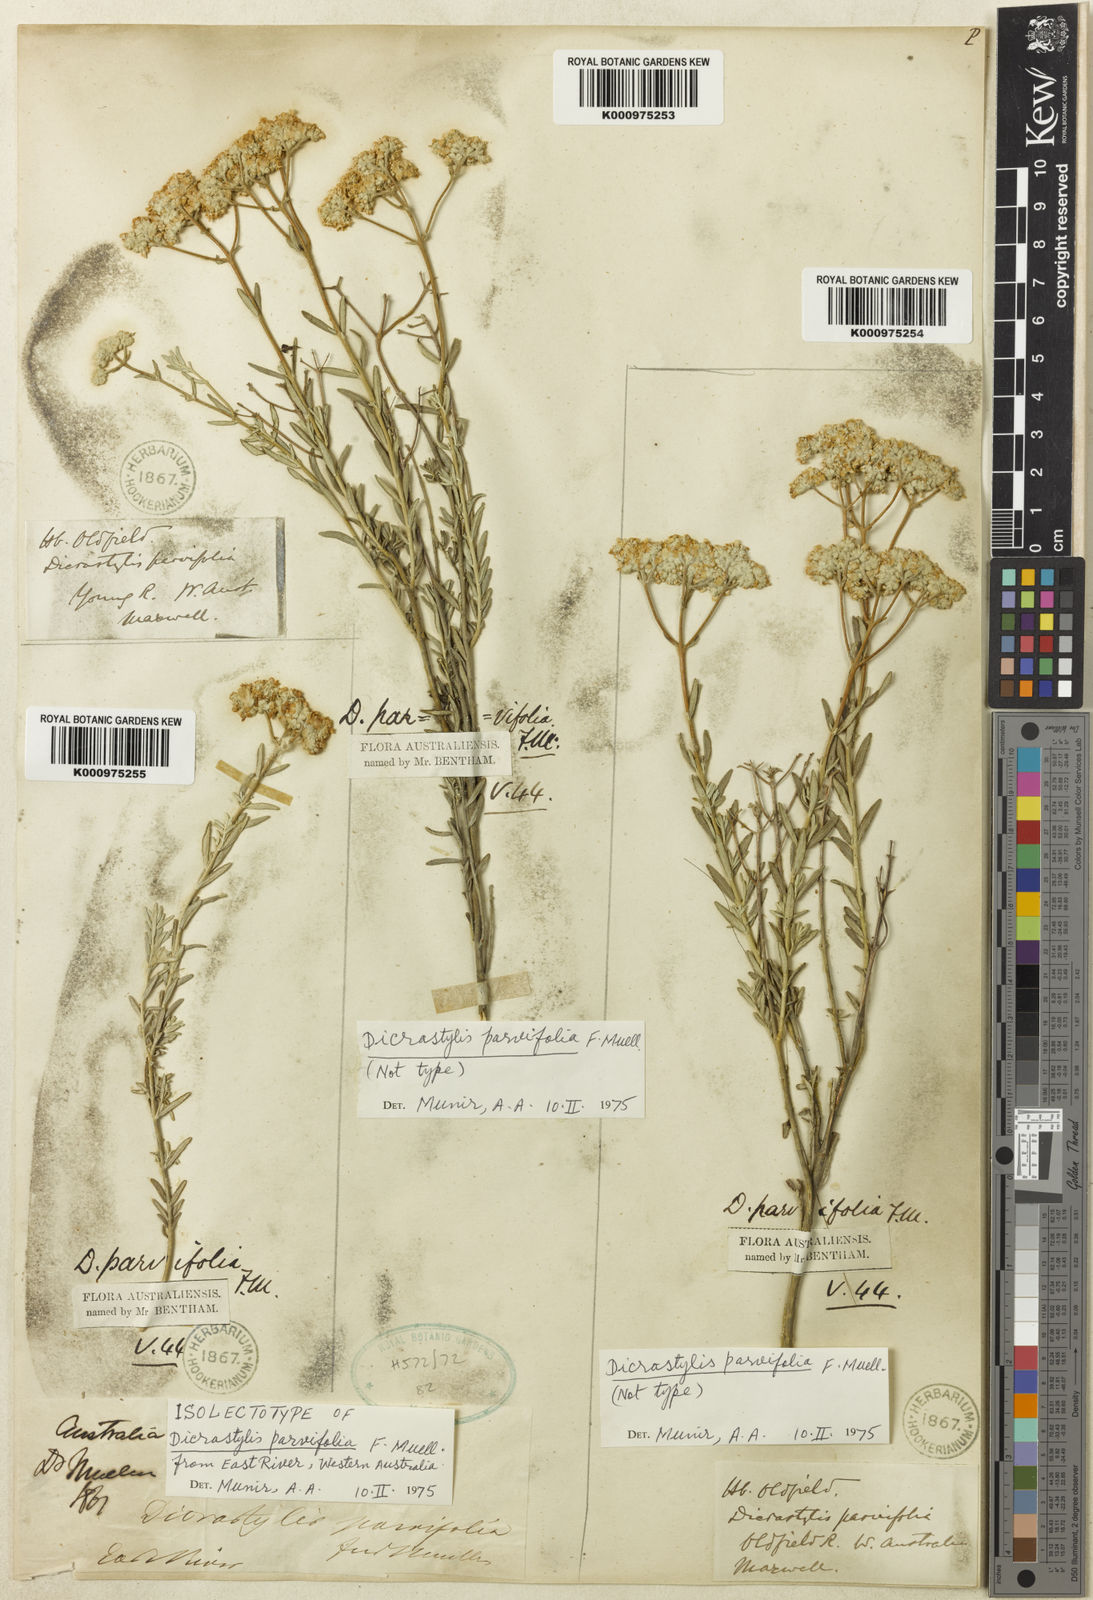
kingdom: Plantae
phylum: Tracheophyta
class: Magnoliopsida
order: Lamiales
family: Lamiaceae
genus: Dicrastylis
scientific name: Dicrastylis parvifolia
